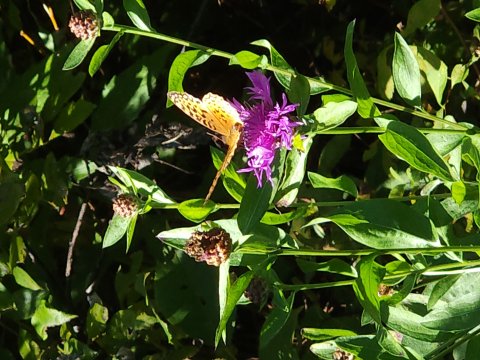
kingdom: Animalia
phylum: Arthropoda
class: Insecta
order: Lepidoptera
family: Nymphalidae
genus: Speyeria
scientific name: Speyeria cybele
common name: Great Spangled Fritillary
